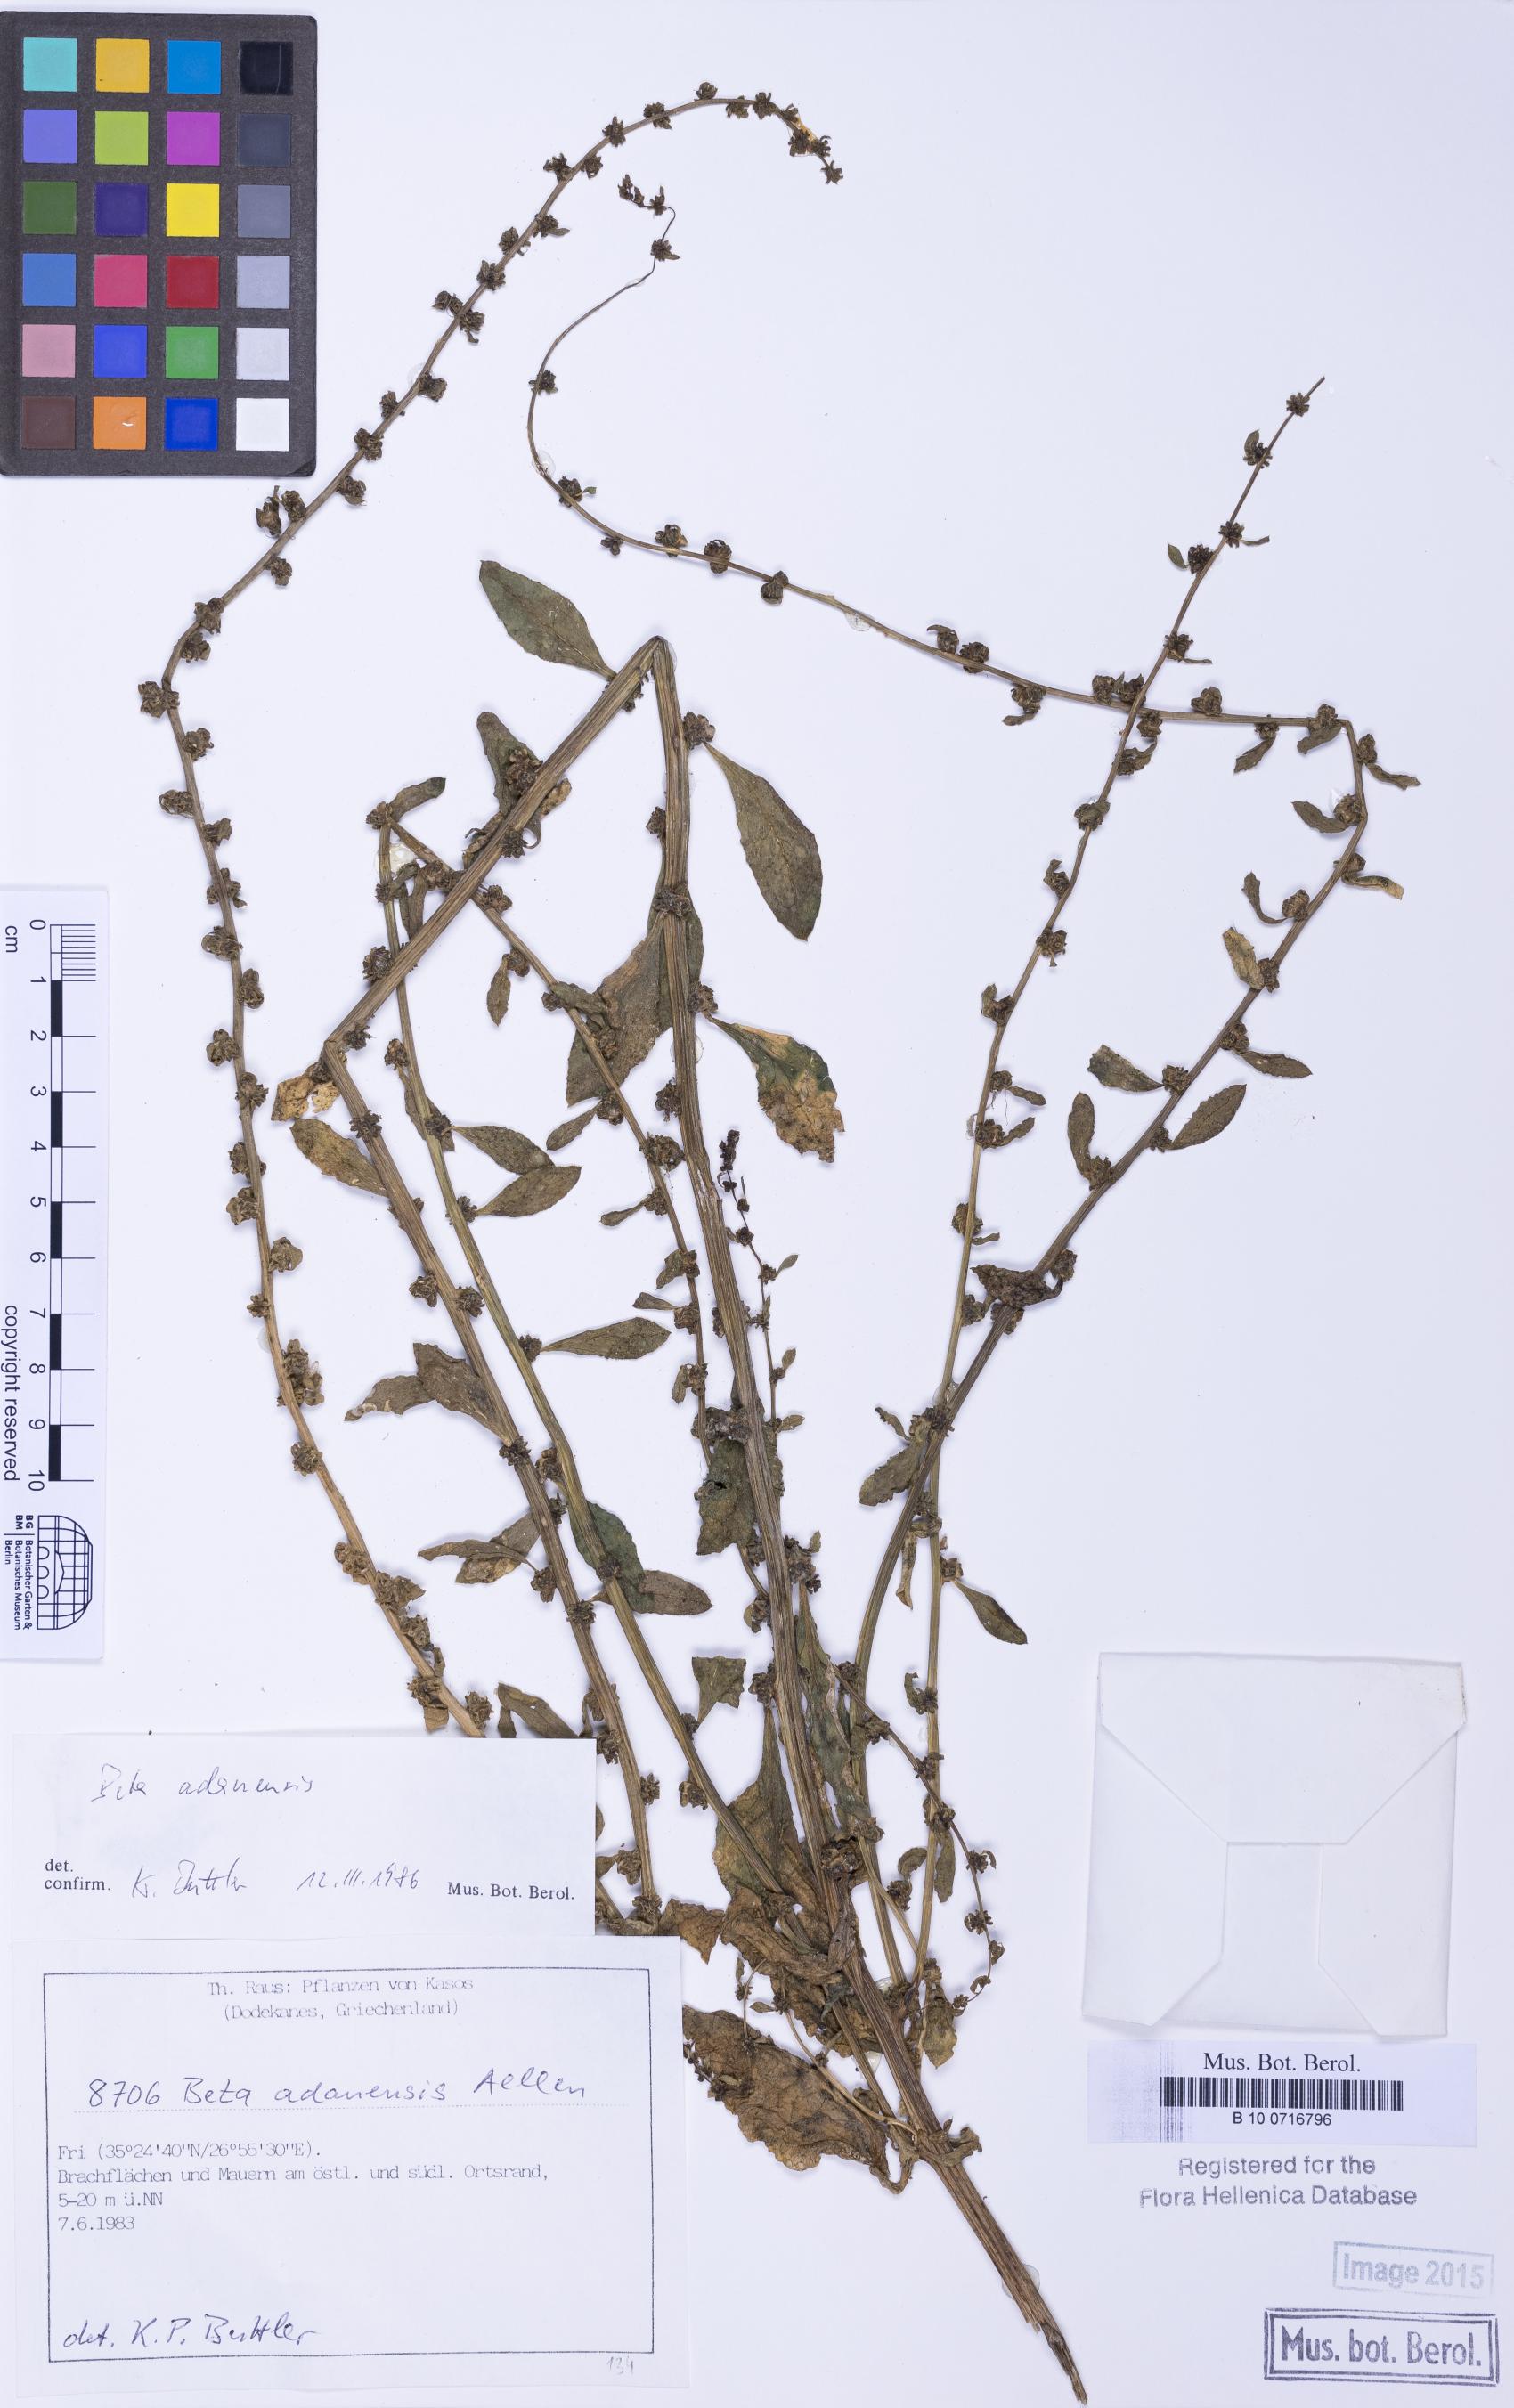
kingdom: Plantae
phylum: Tracheophyta
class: Magnoliopsida
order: Caryophyllales
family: Amaranthaceae
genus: Beta
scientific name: Beta adanensis
